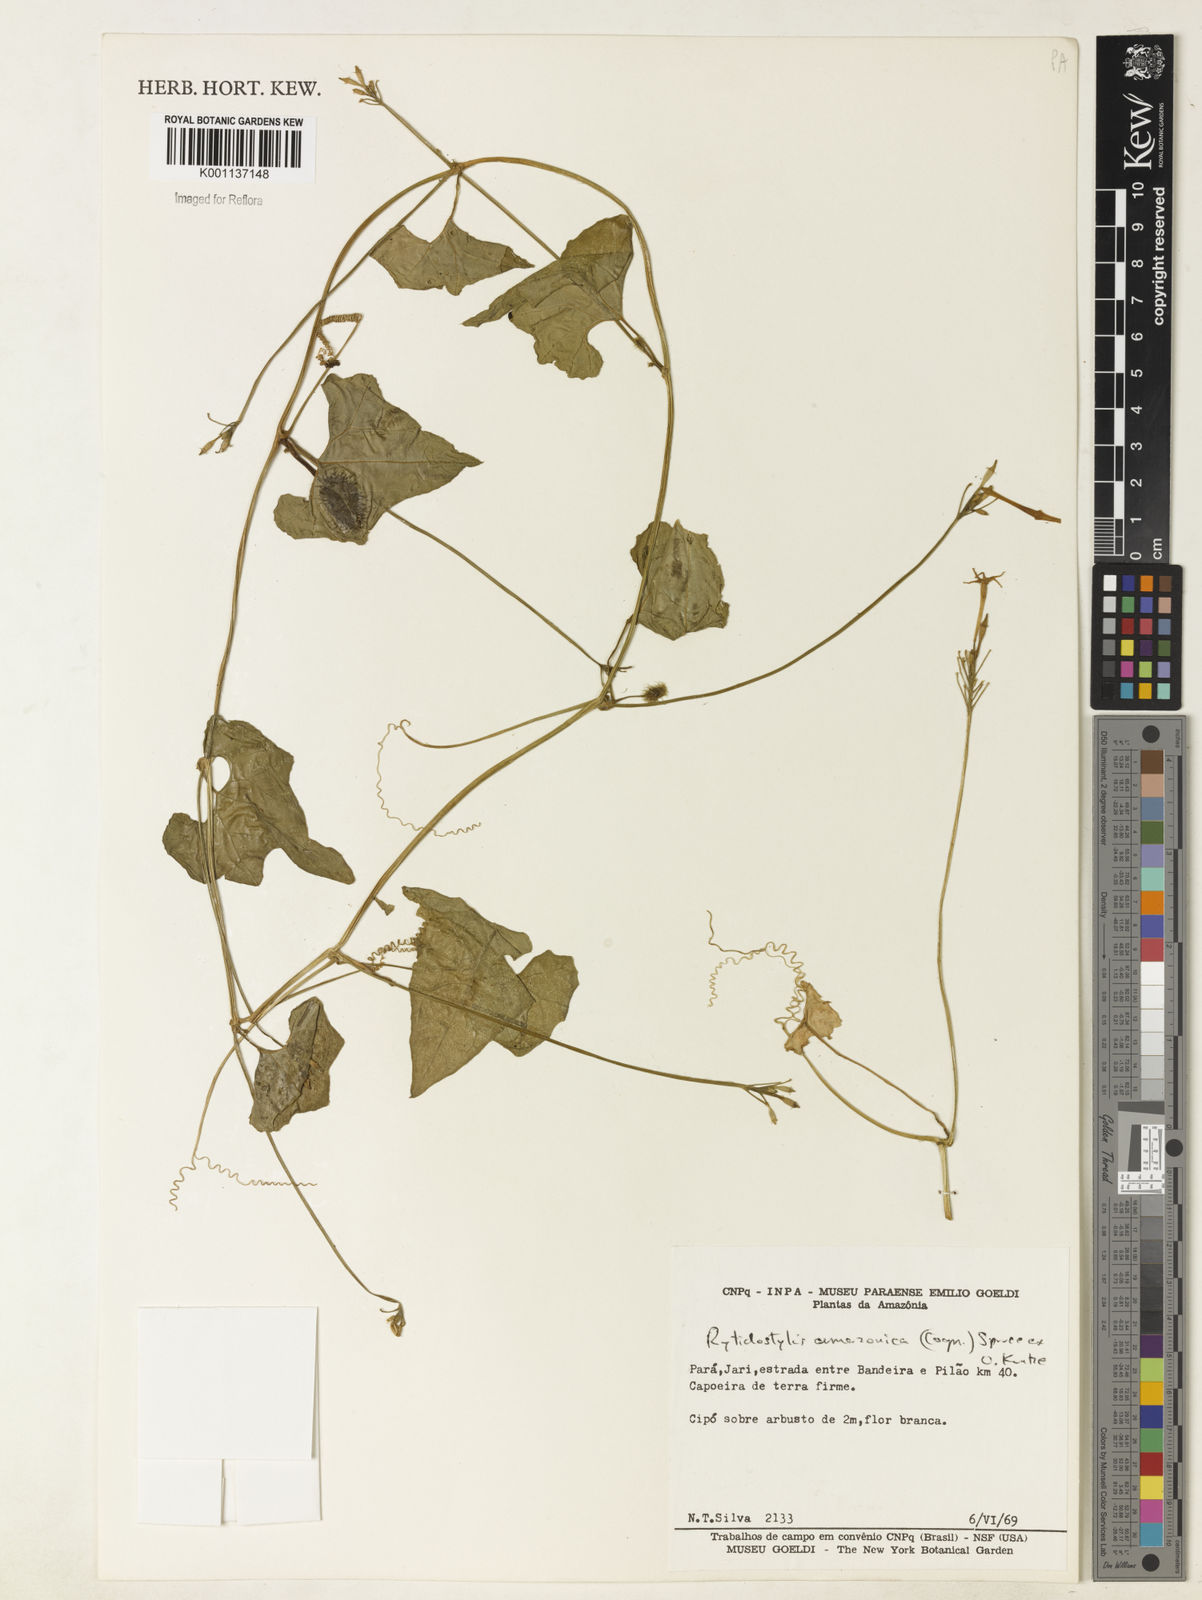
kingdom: Plantae
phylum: Tracheophyta
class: Magnoliopsida
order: Cucurbitales
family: Cucurbitaceae
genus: Cyclanthera
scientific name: Cyclanthera carthagenensis
